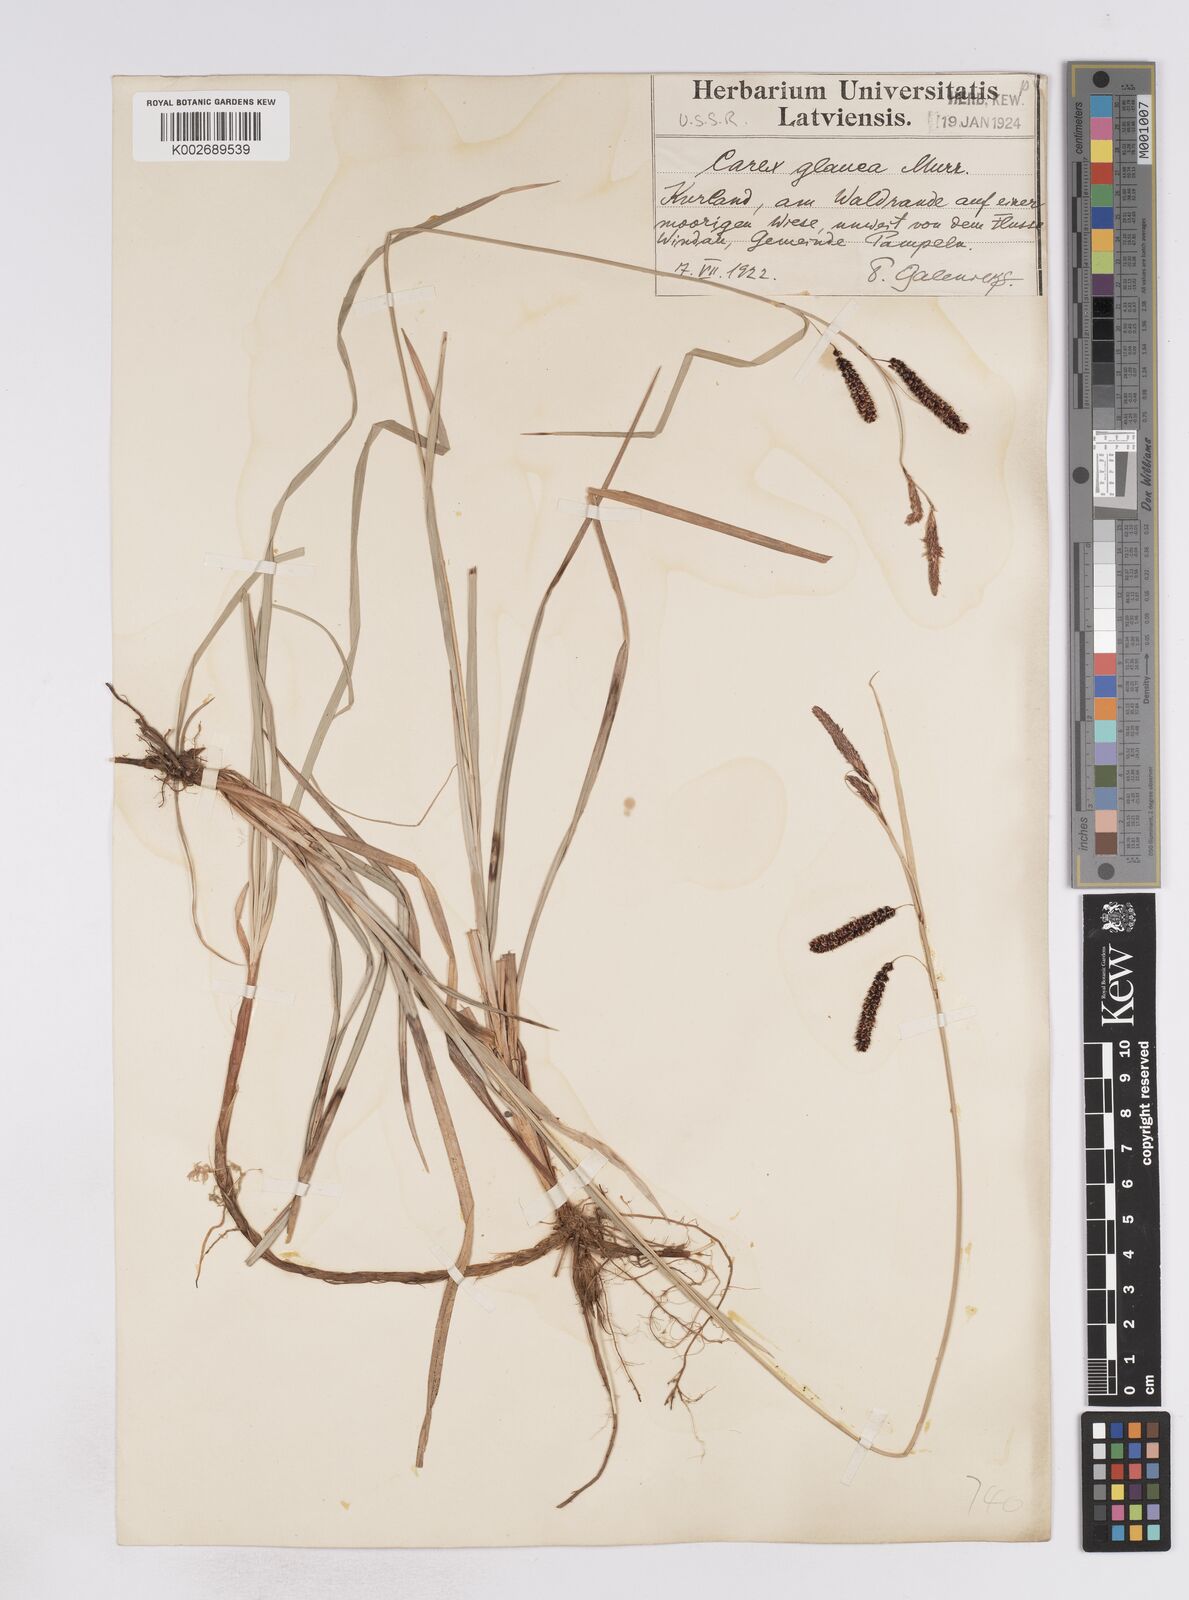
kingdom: Plantae
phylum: Tracheophyta
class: Liliopsida
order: Poales
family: Cyperaceae
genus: Carex
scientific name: Carex flacca
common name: Glaucous sedge
